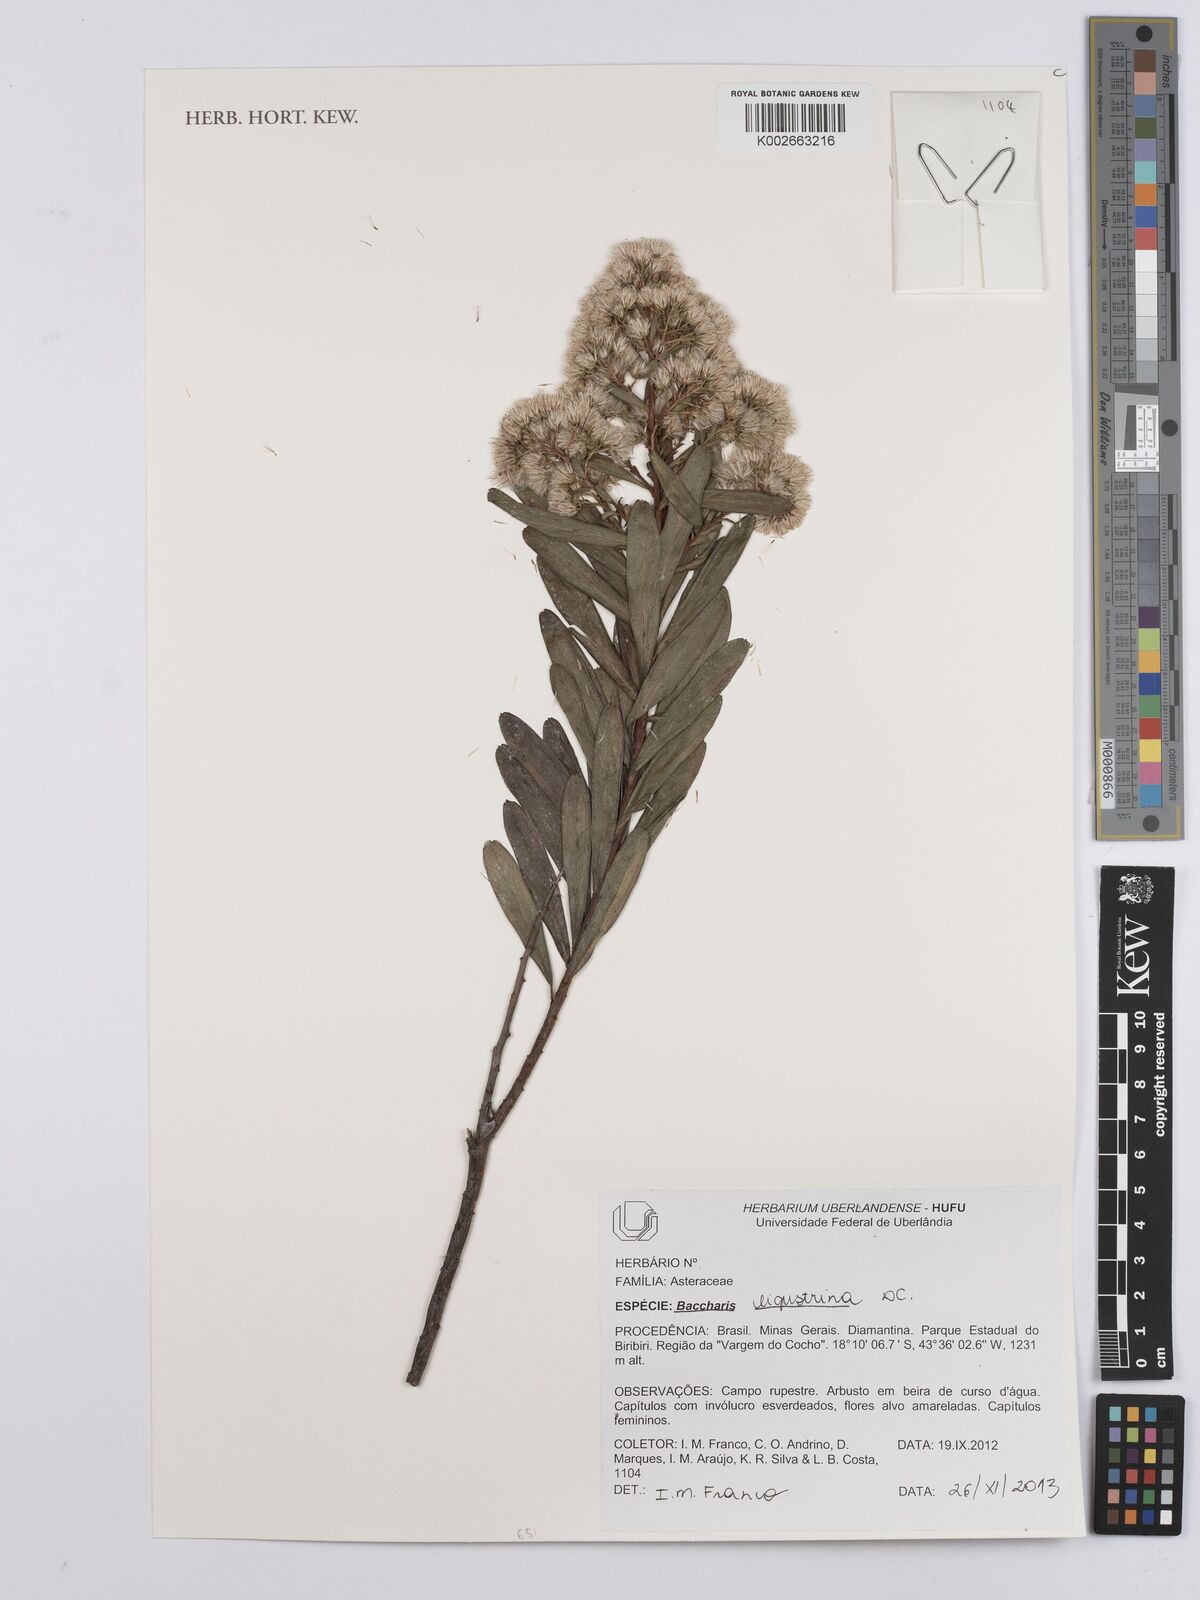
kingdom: Plantae
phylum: Tracheophyta
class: Magnoliopsida
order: Asterales
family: Asteraceae
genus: Baccharis
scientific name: Baccharis ligustrina
